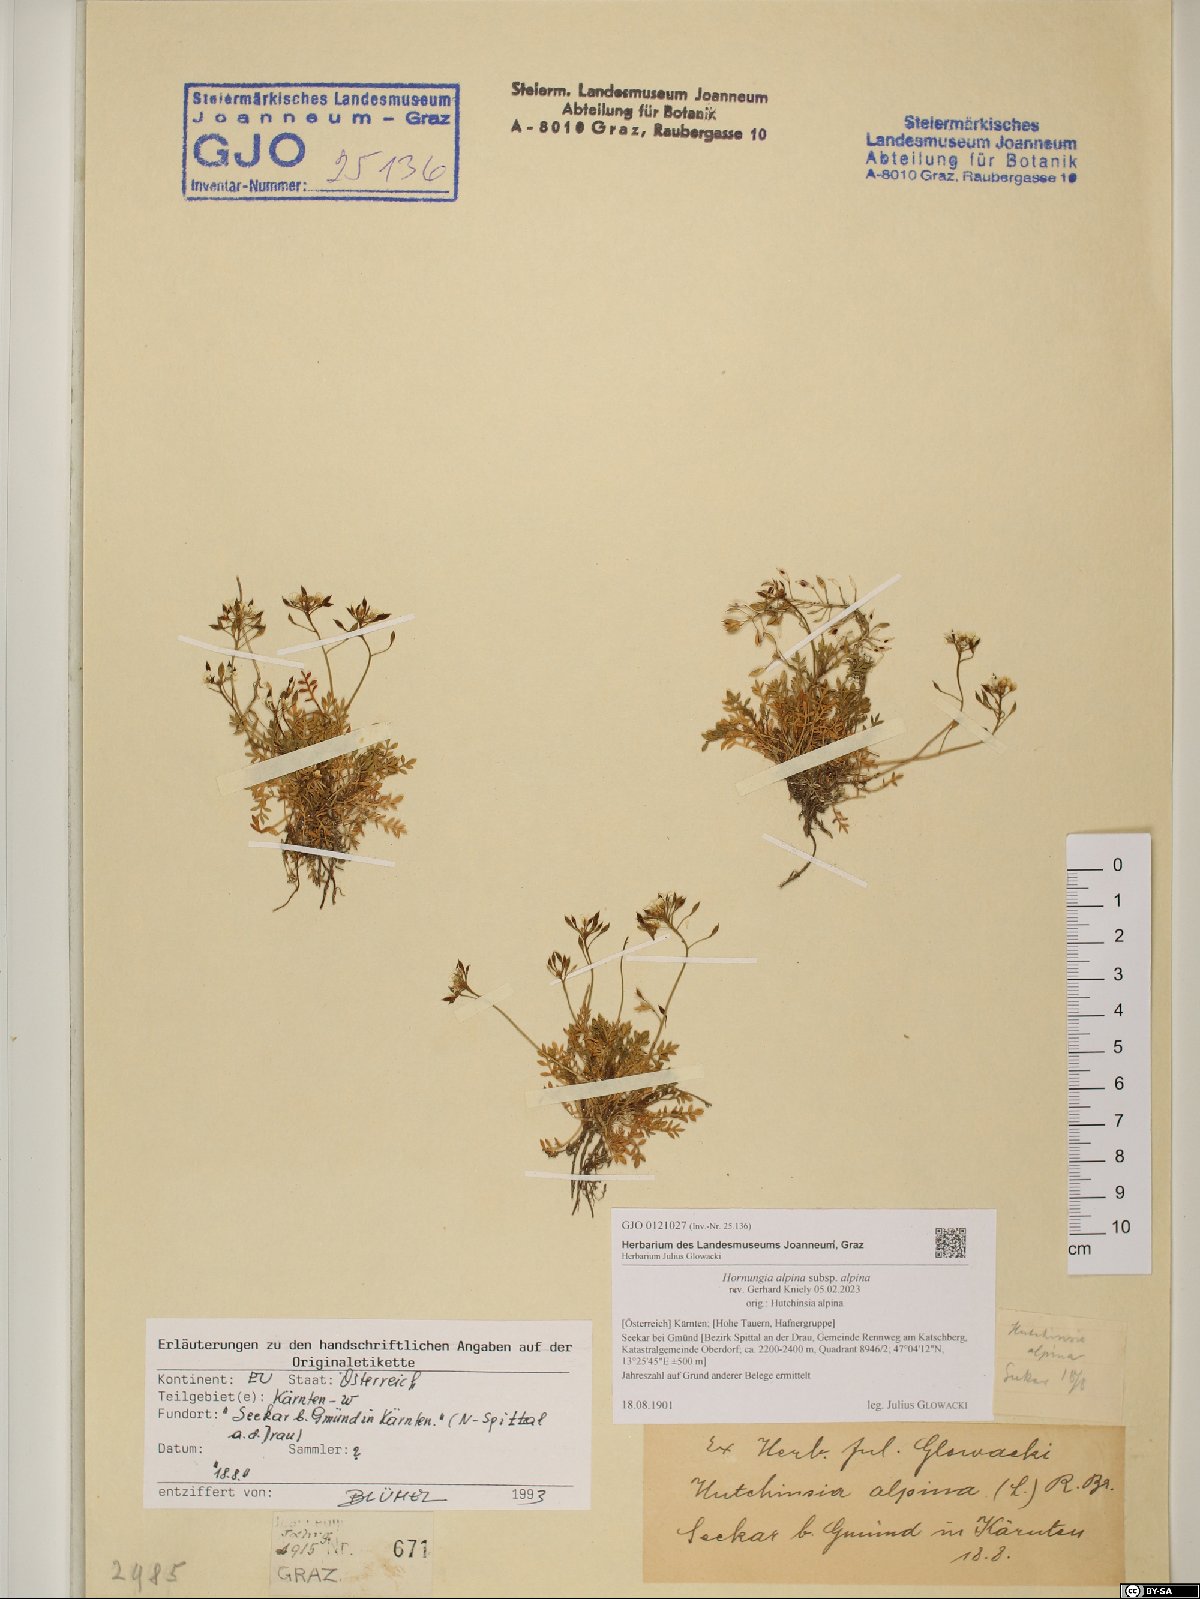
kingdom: Plantae
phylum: Tracheophyta
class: Magnoliopsida
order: Brassicales
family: Brassicaceae
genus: Hornungia
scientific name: Hornungia alpina
